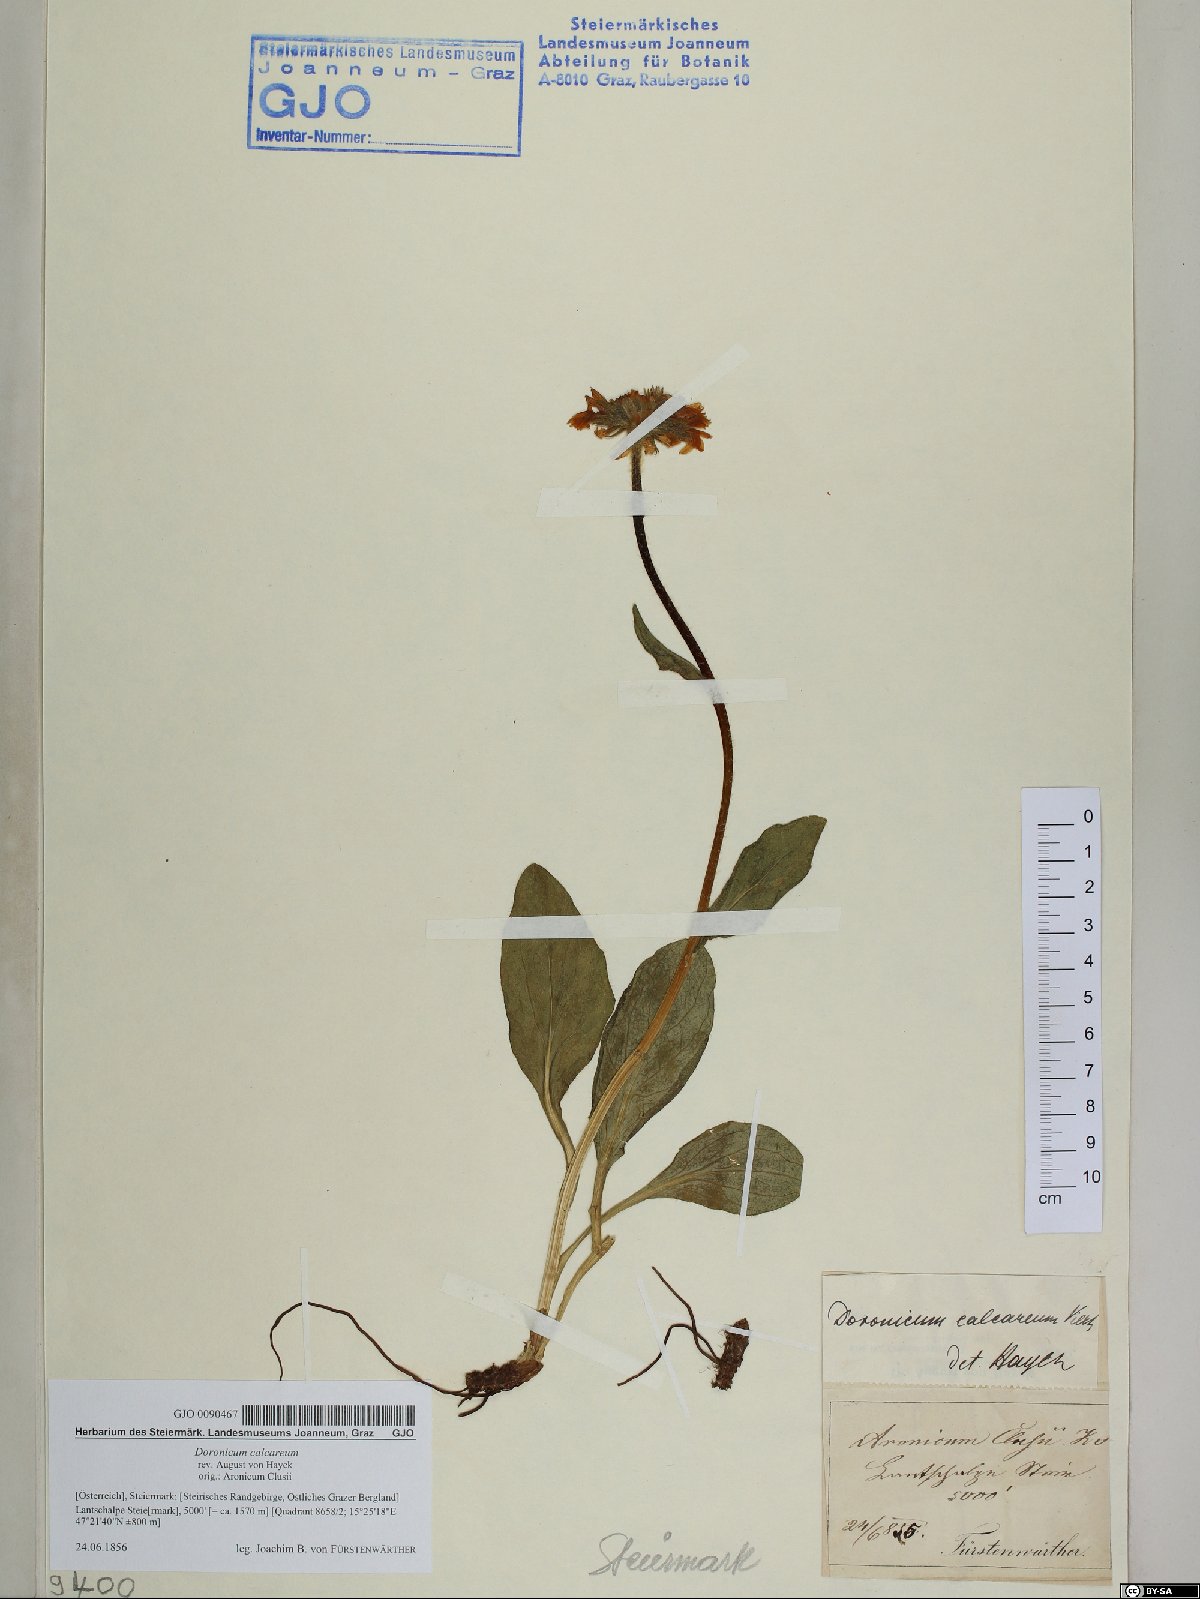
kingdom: Plantae
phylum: Tracheophyta
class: Magnoliopsida
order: Asterales
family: Asteraceae
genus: Doronicum
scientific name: Doronicum glaciale
